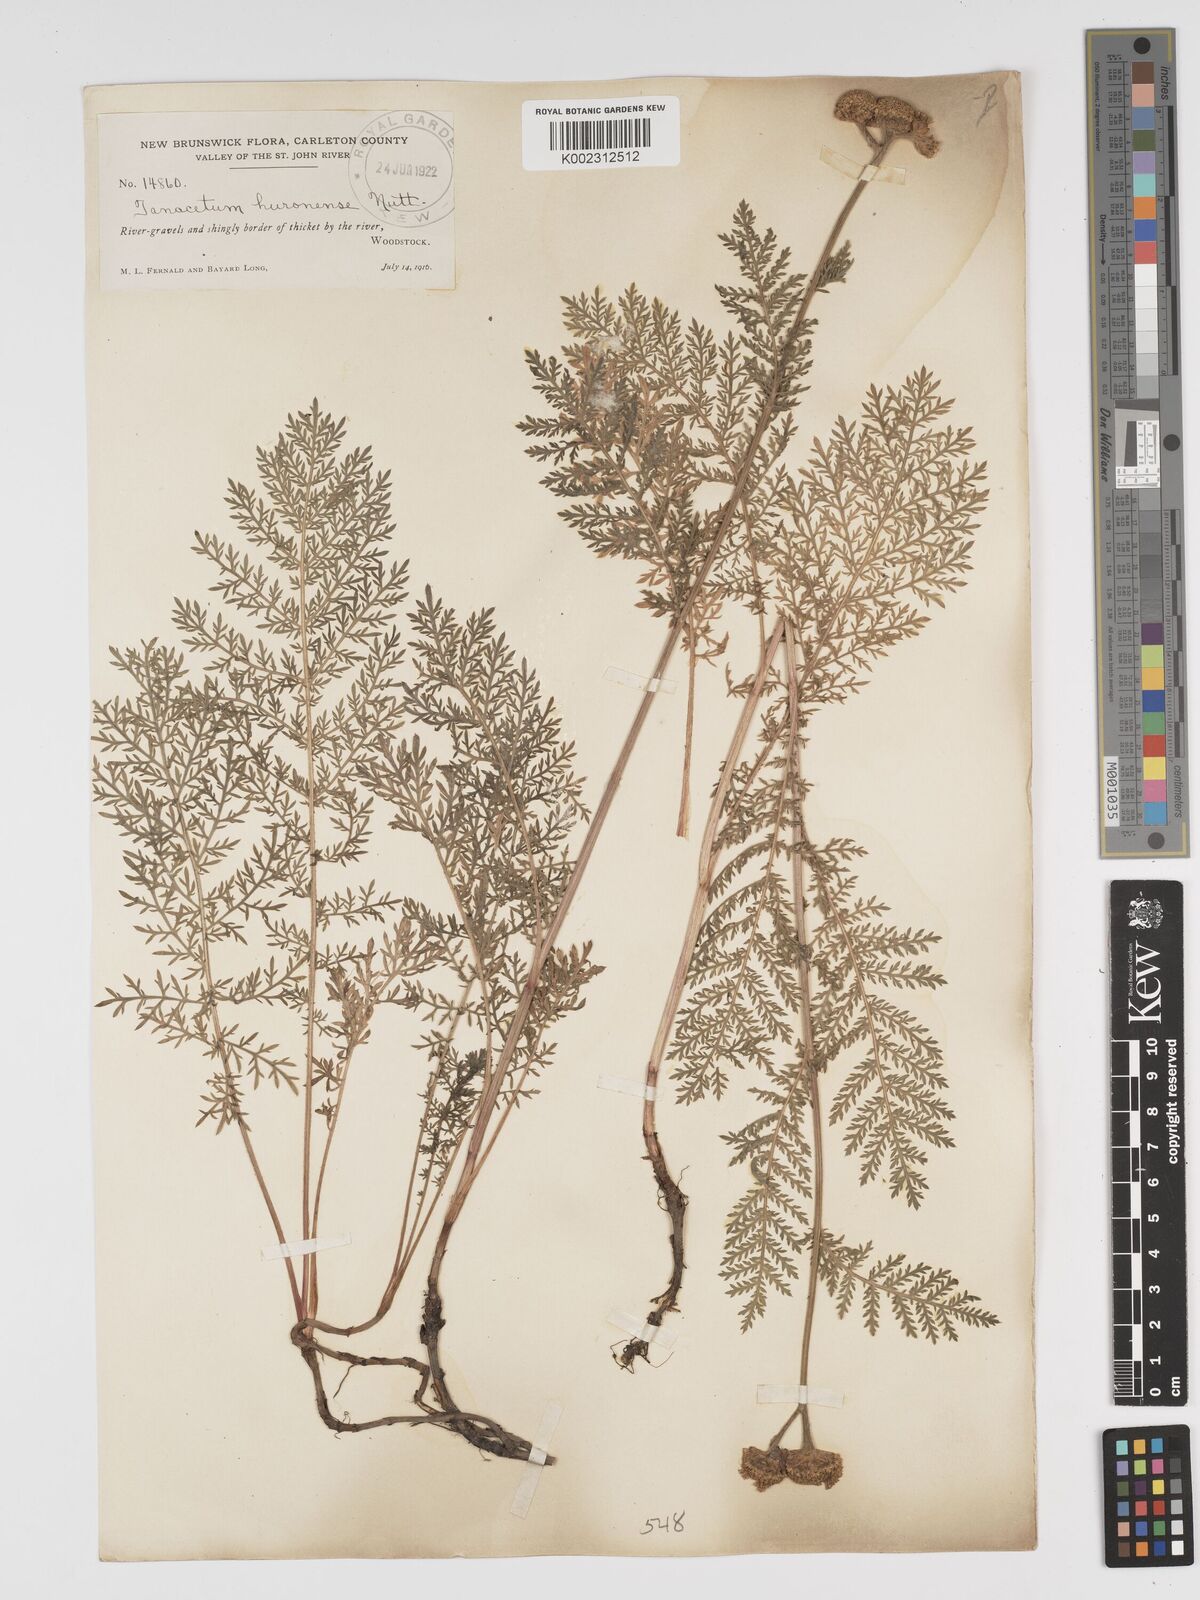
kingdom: Plantae
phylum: Tracheophyta
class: Magnoliopsida
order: Asterales
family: Asteraceae
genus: Tanacetum
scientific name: Tanacetum bipinnatum
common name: Dwarf tansy
